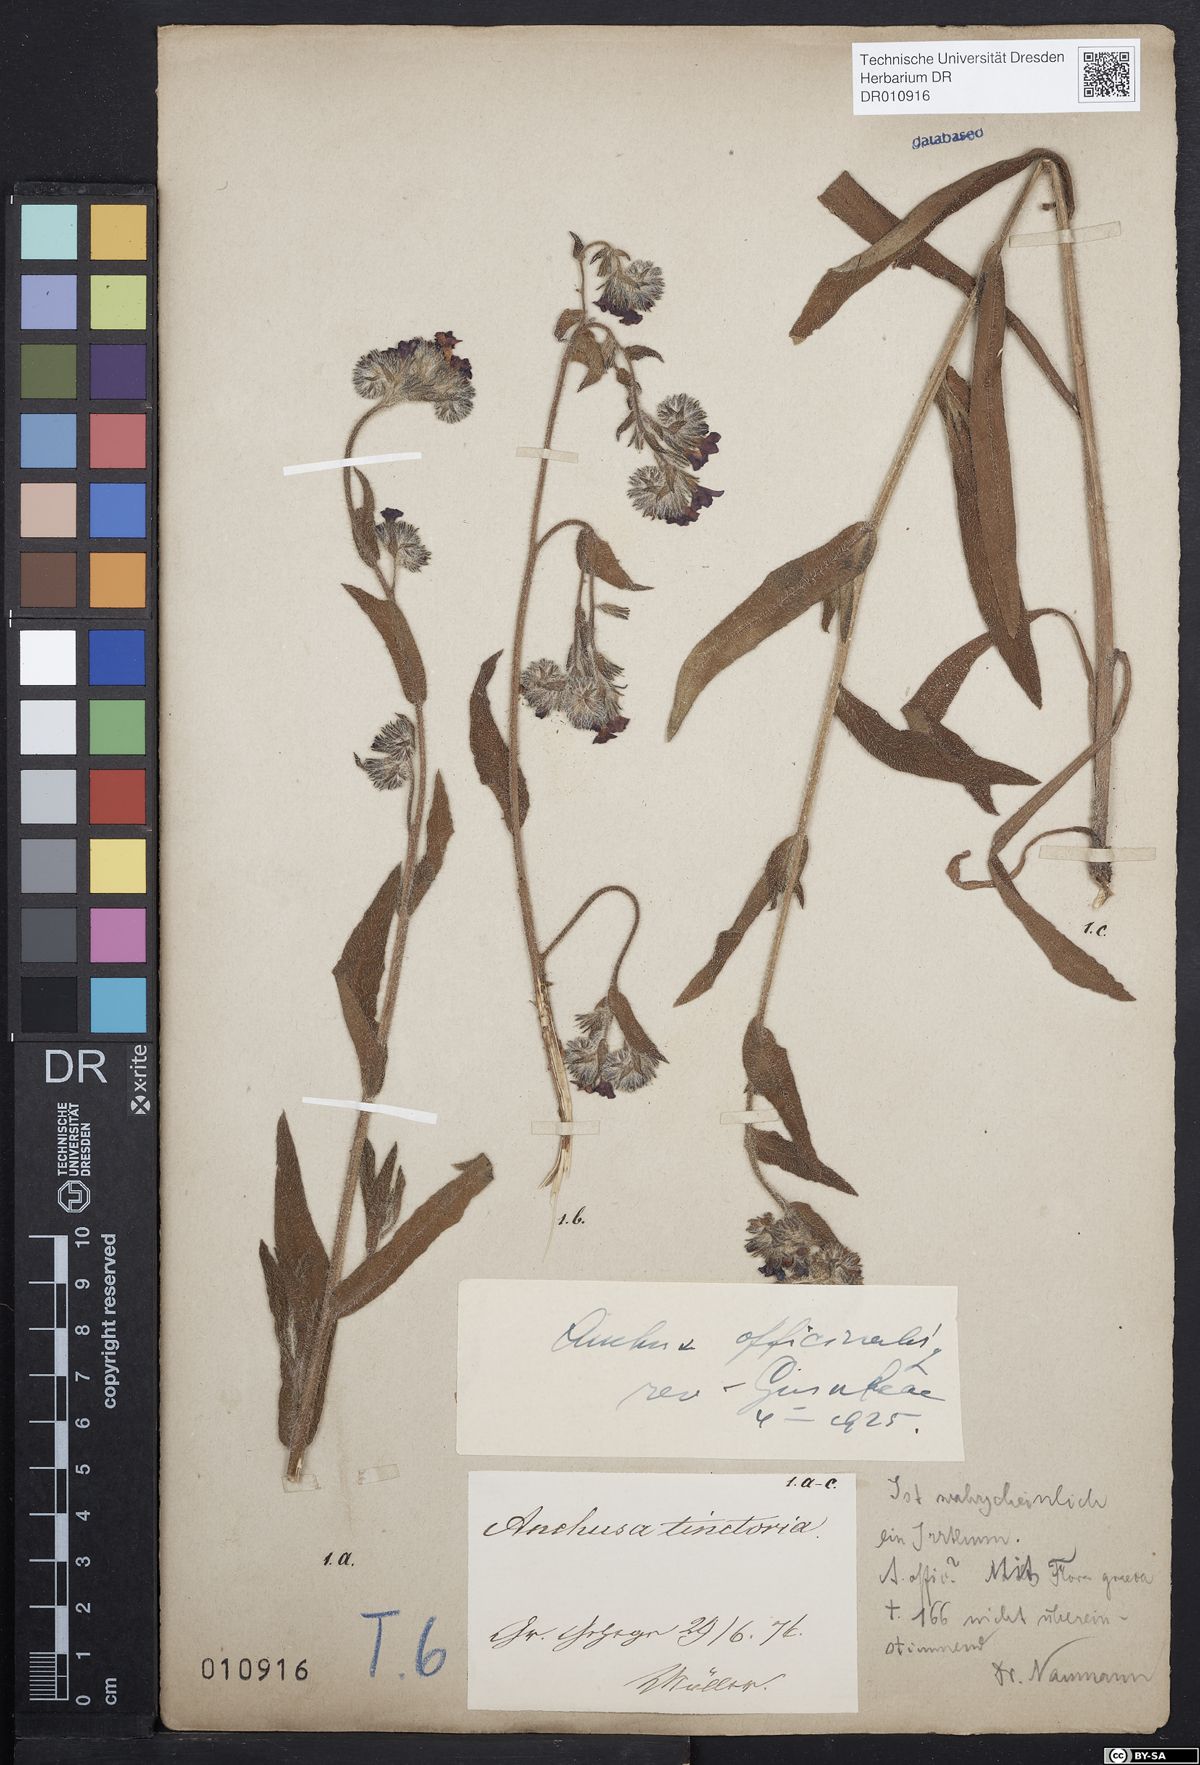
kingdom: Plantae
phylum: Tracheophyta
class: Magnoliopsida
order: Boraginales
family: Boraginaceae
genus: Anchusa
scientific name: Anchusa officinalis
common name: Alkanet
